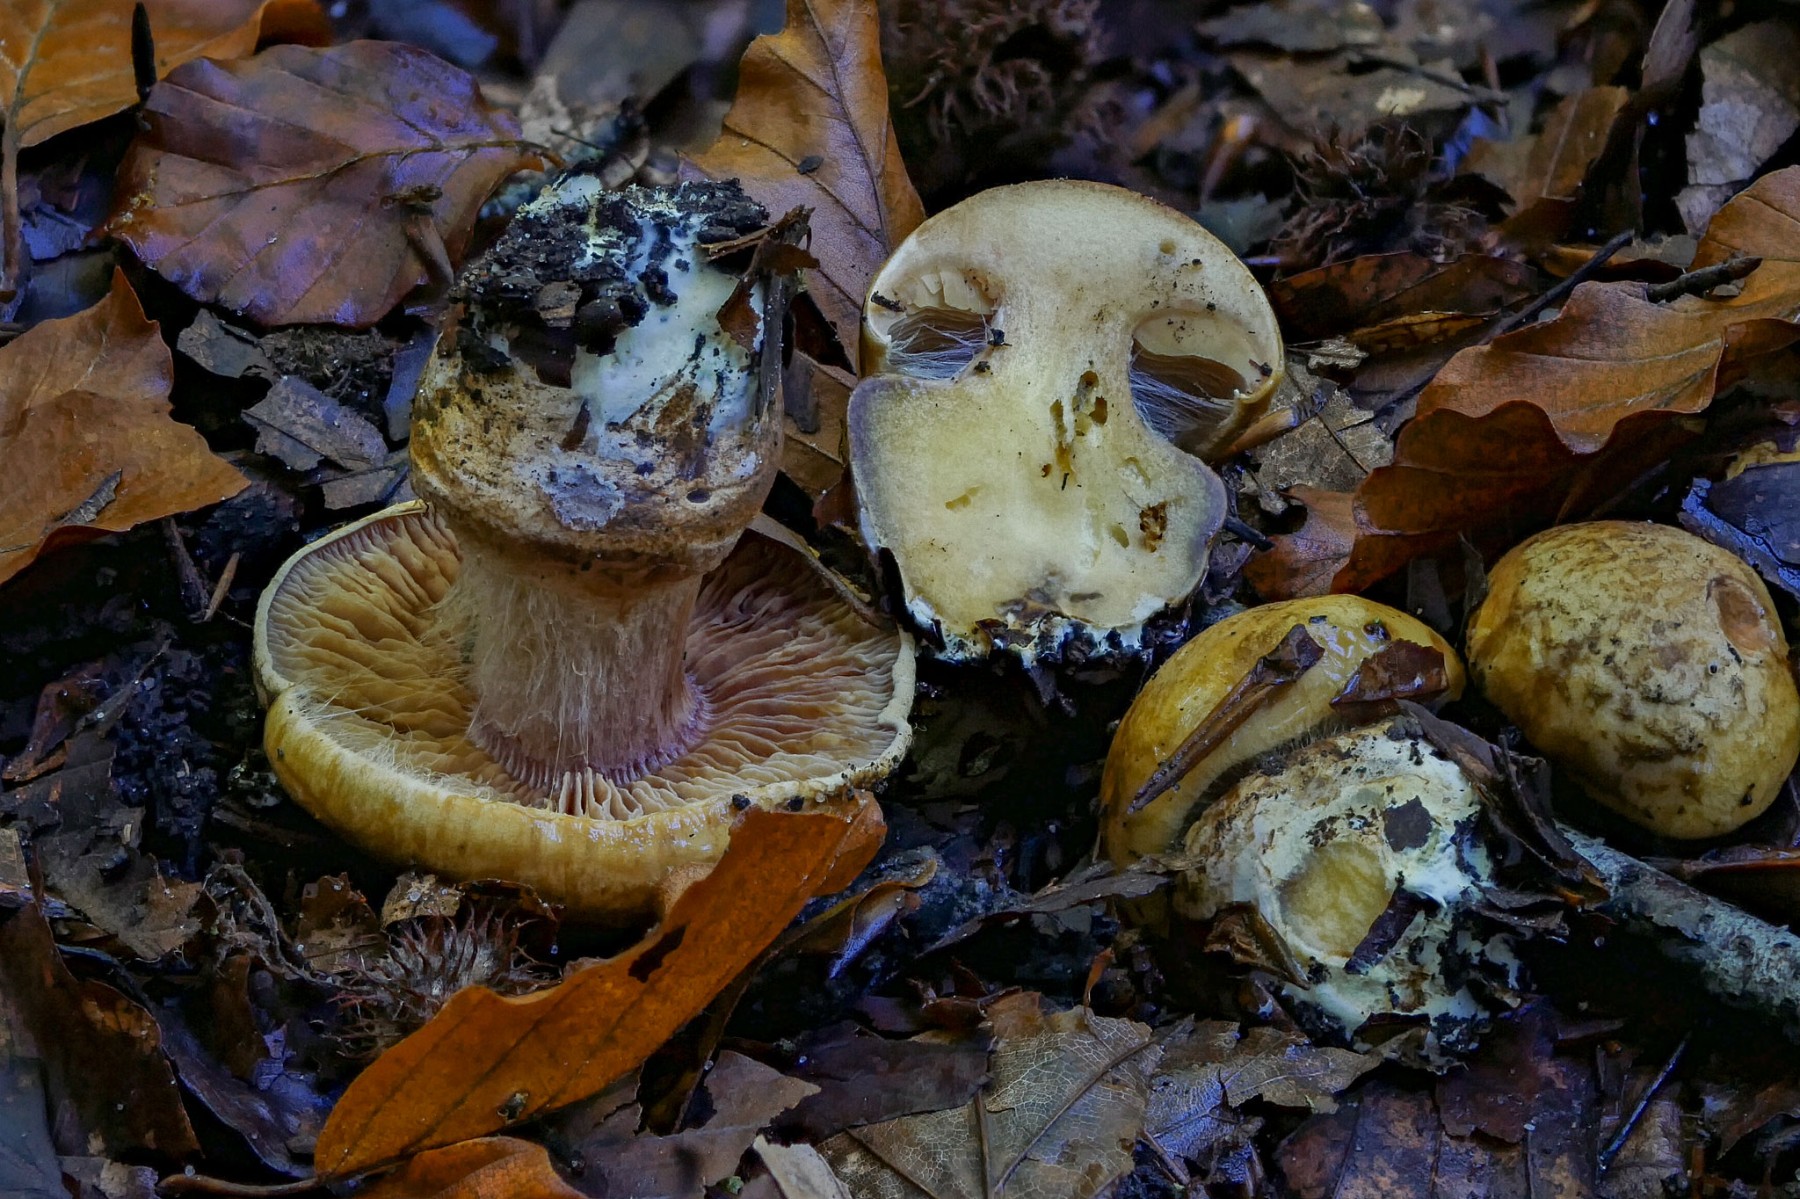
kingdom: Fungi
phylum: Basidiomycota
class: Agaricomycetes
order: Agaricales
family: Cortinariaceae
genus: Cortinarius
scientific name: Cortinarius
